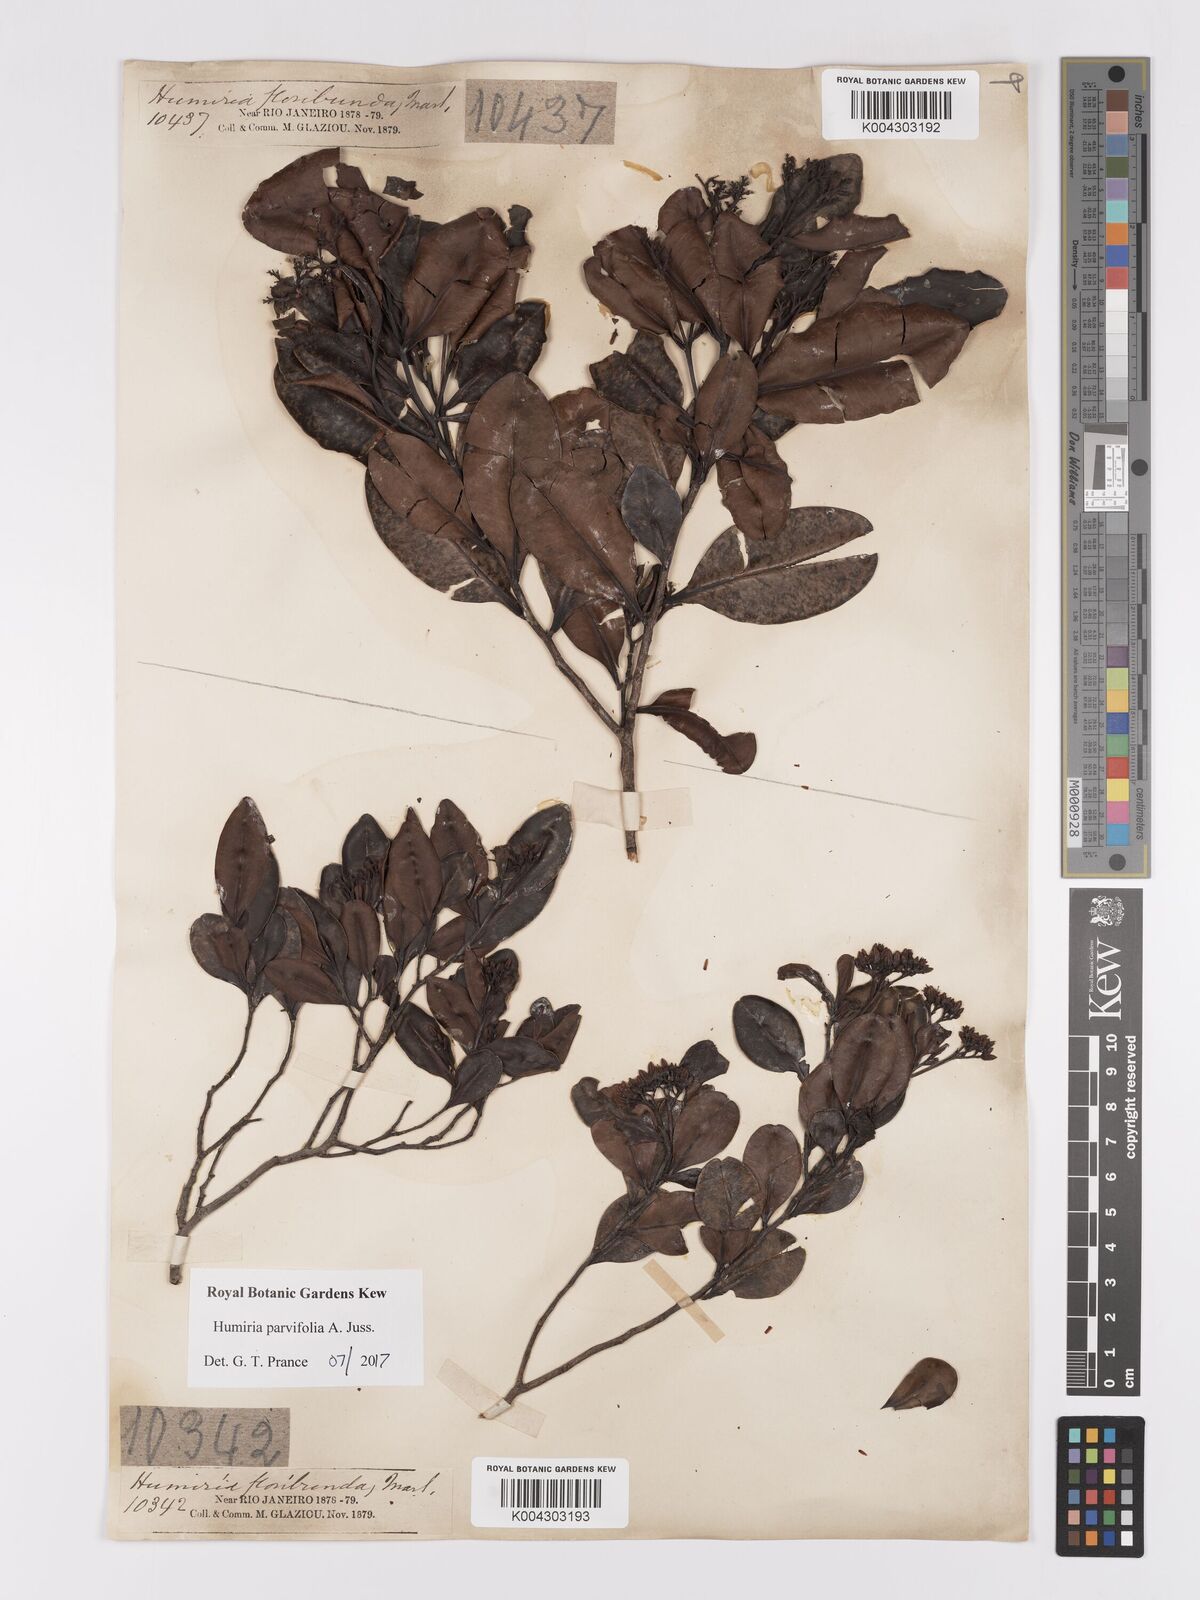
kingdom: Plantae
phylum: Tracheophyta
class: Magnoliopsida
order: Malpighiales
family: Humiriaceae
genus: Humiria
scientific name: Humiria parvifolia
